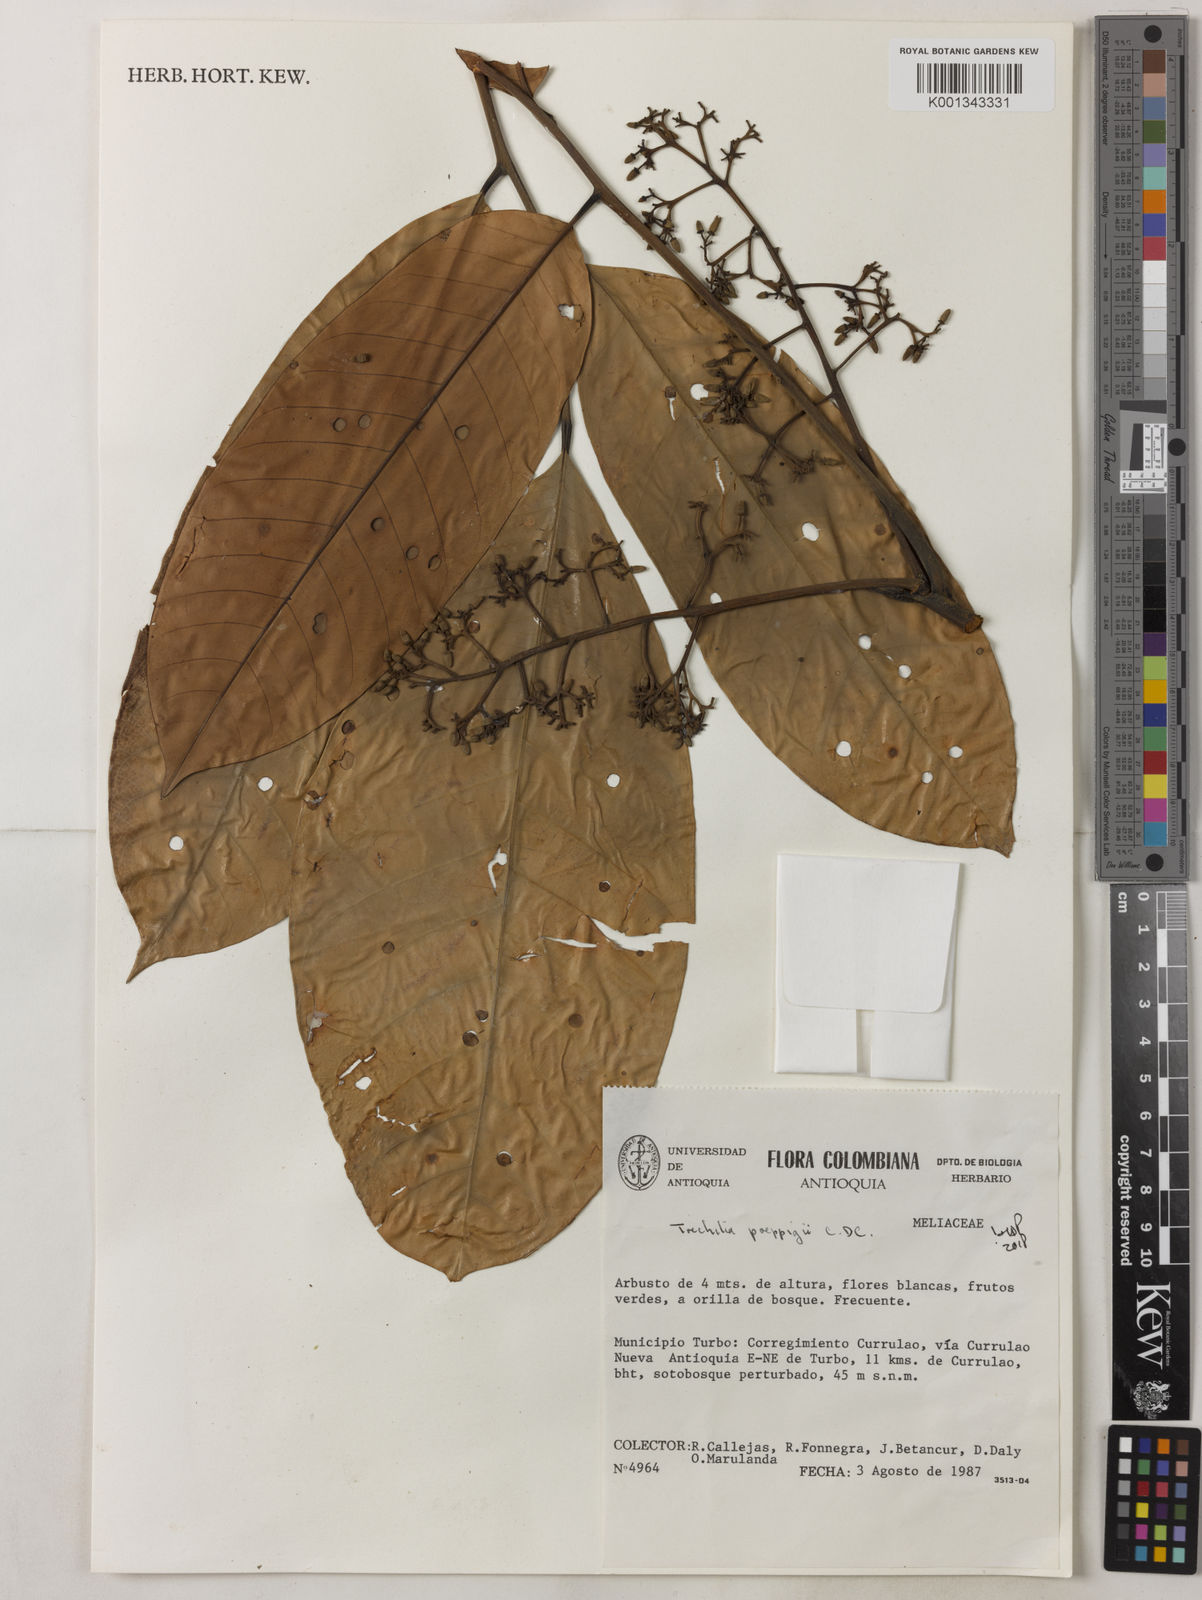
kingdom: Plantae
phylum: Tracheophyta
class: Magnoliopsida
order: Sapindales
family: Meliaceae
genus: Trichilia
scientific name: Trichilia
